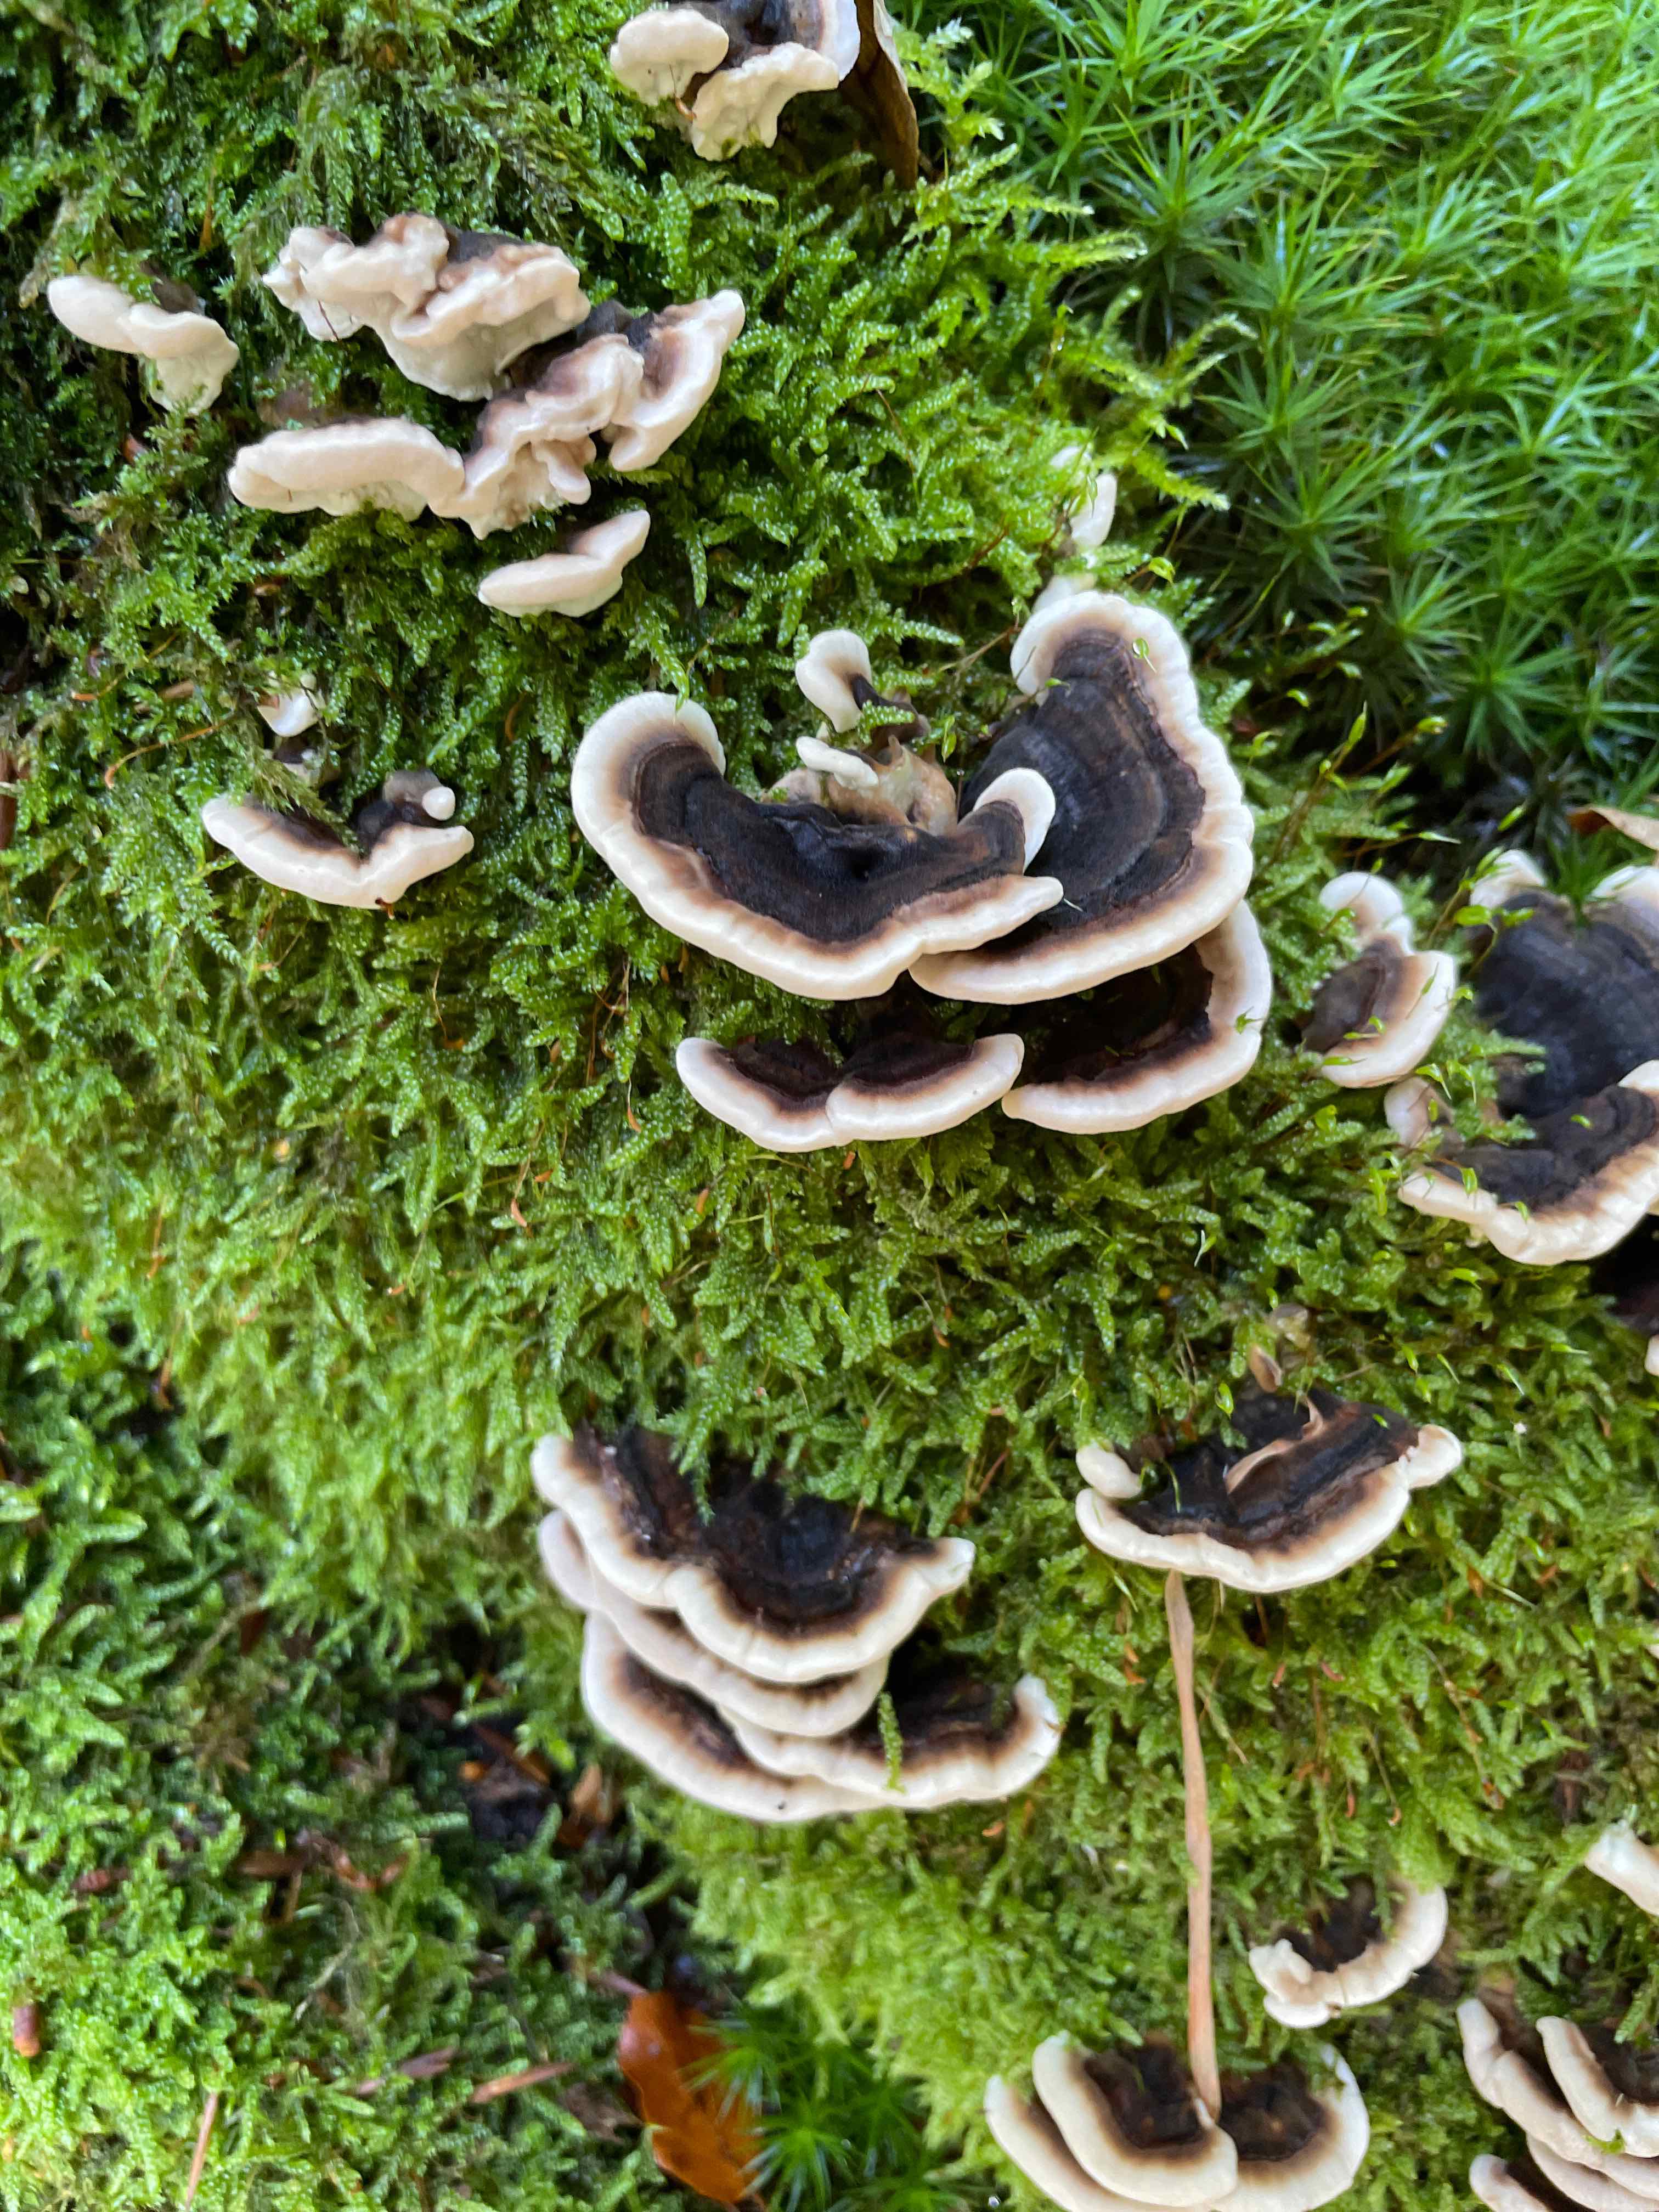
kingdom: Fungi
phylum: Basidiomycota
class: Agaricomycetes
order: Polyporales
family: Polyporaceae
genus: Trametes
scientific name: Trametes versicolor
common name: broget læderporesvamp
